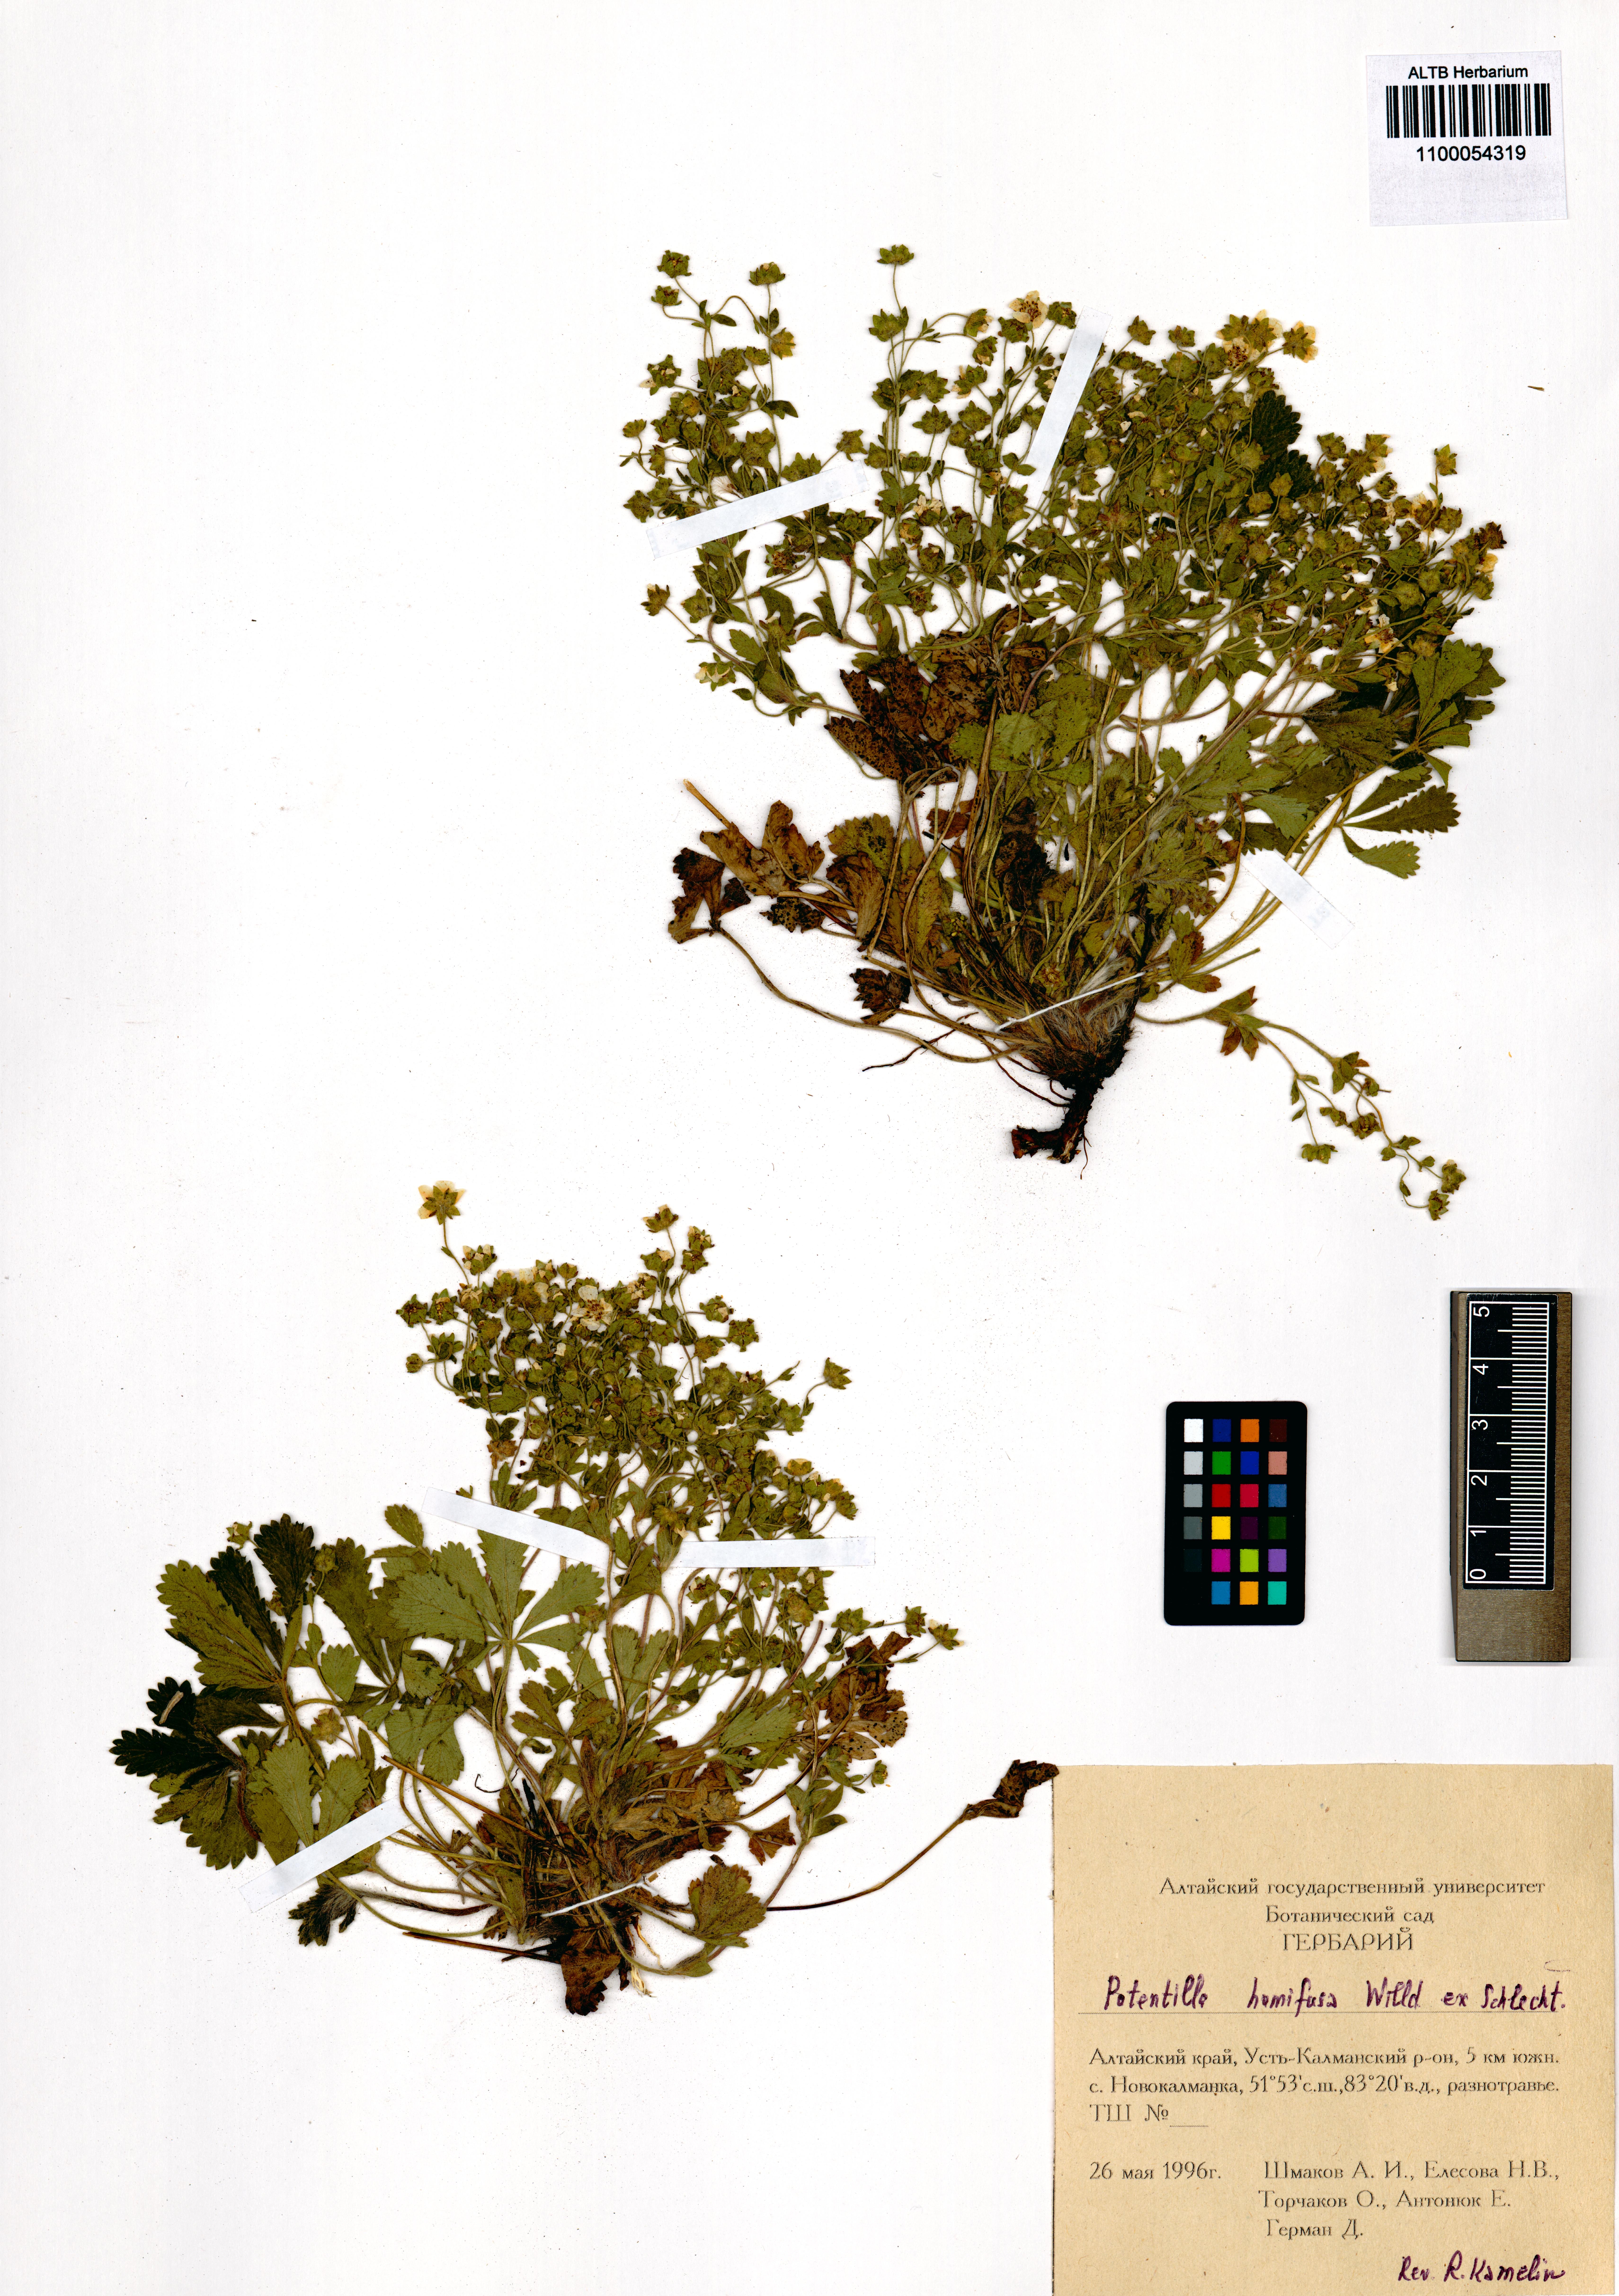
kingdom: Plantae
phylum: Tracheophyta
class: Magnoliopsida
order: Rosales
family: Rosaceae
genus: Potentilla
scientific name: Potentilla humifusa
